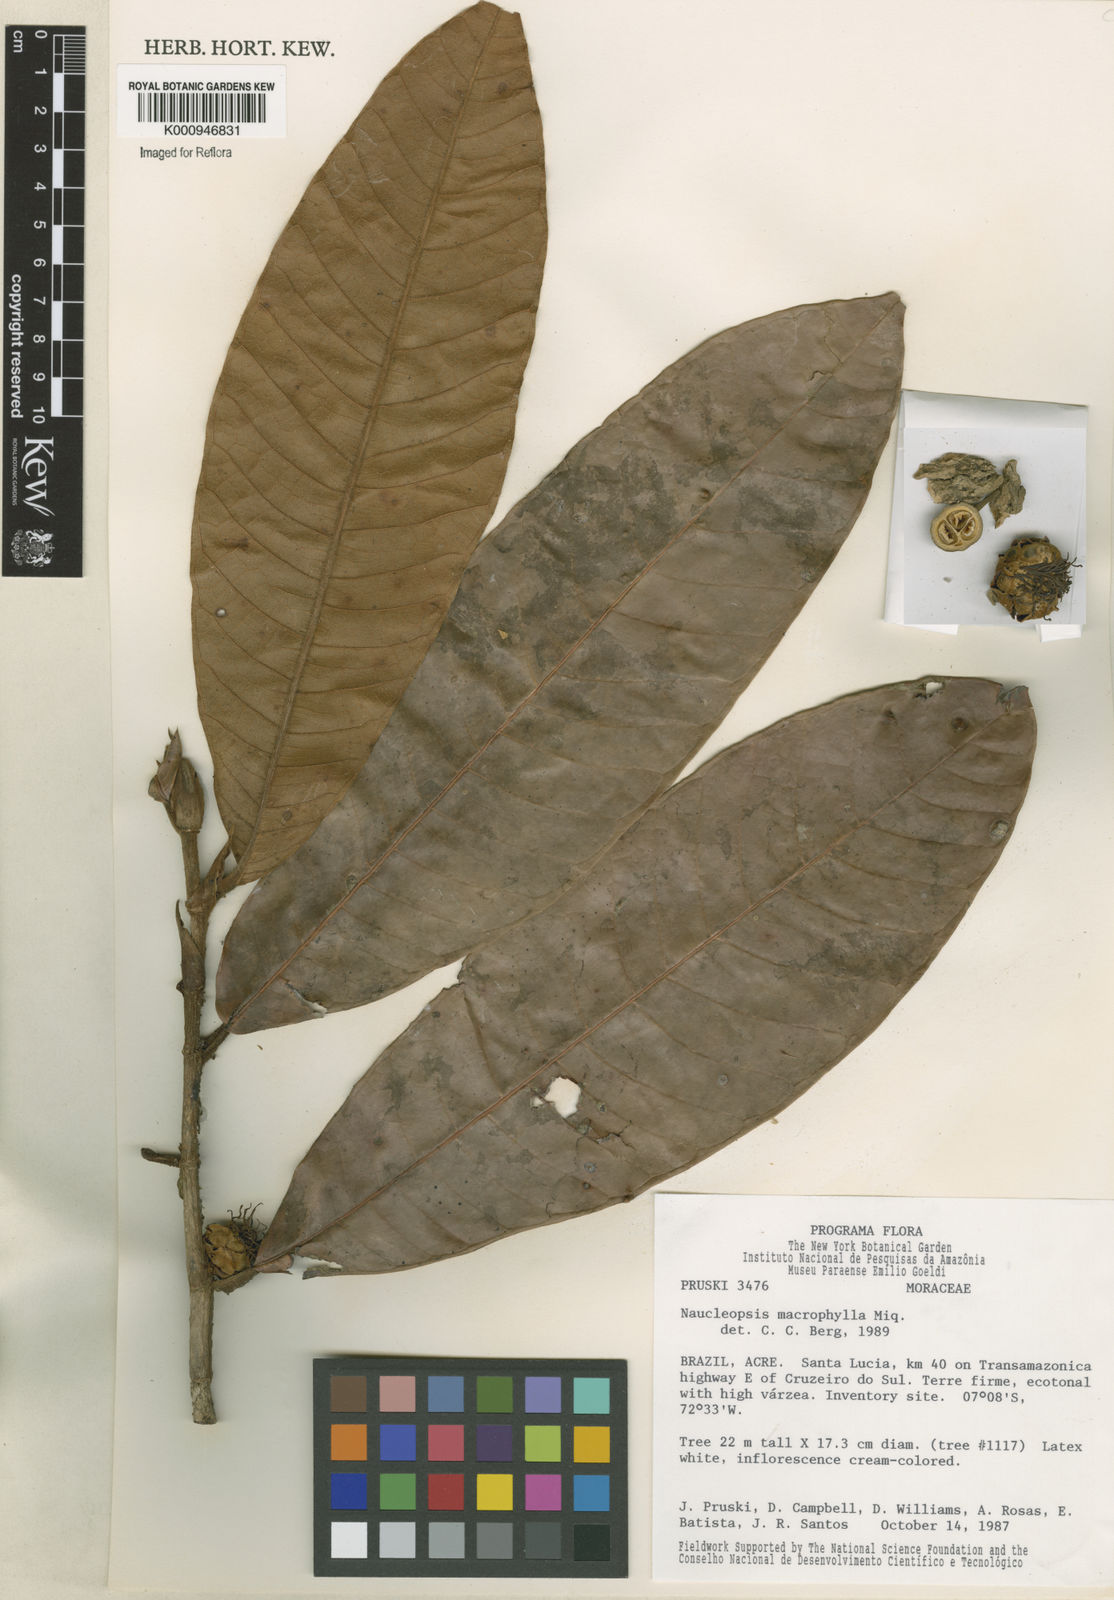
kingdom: Plantae
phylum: Tracheophyta
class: Magnoliopsida
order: Rosales
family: Moraceae
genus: Naucleopsis
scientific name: Naucleopsis macrophylla
